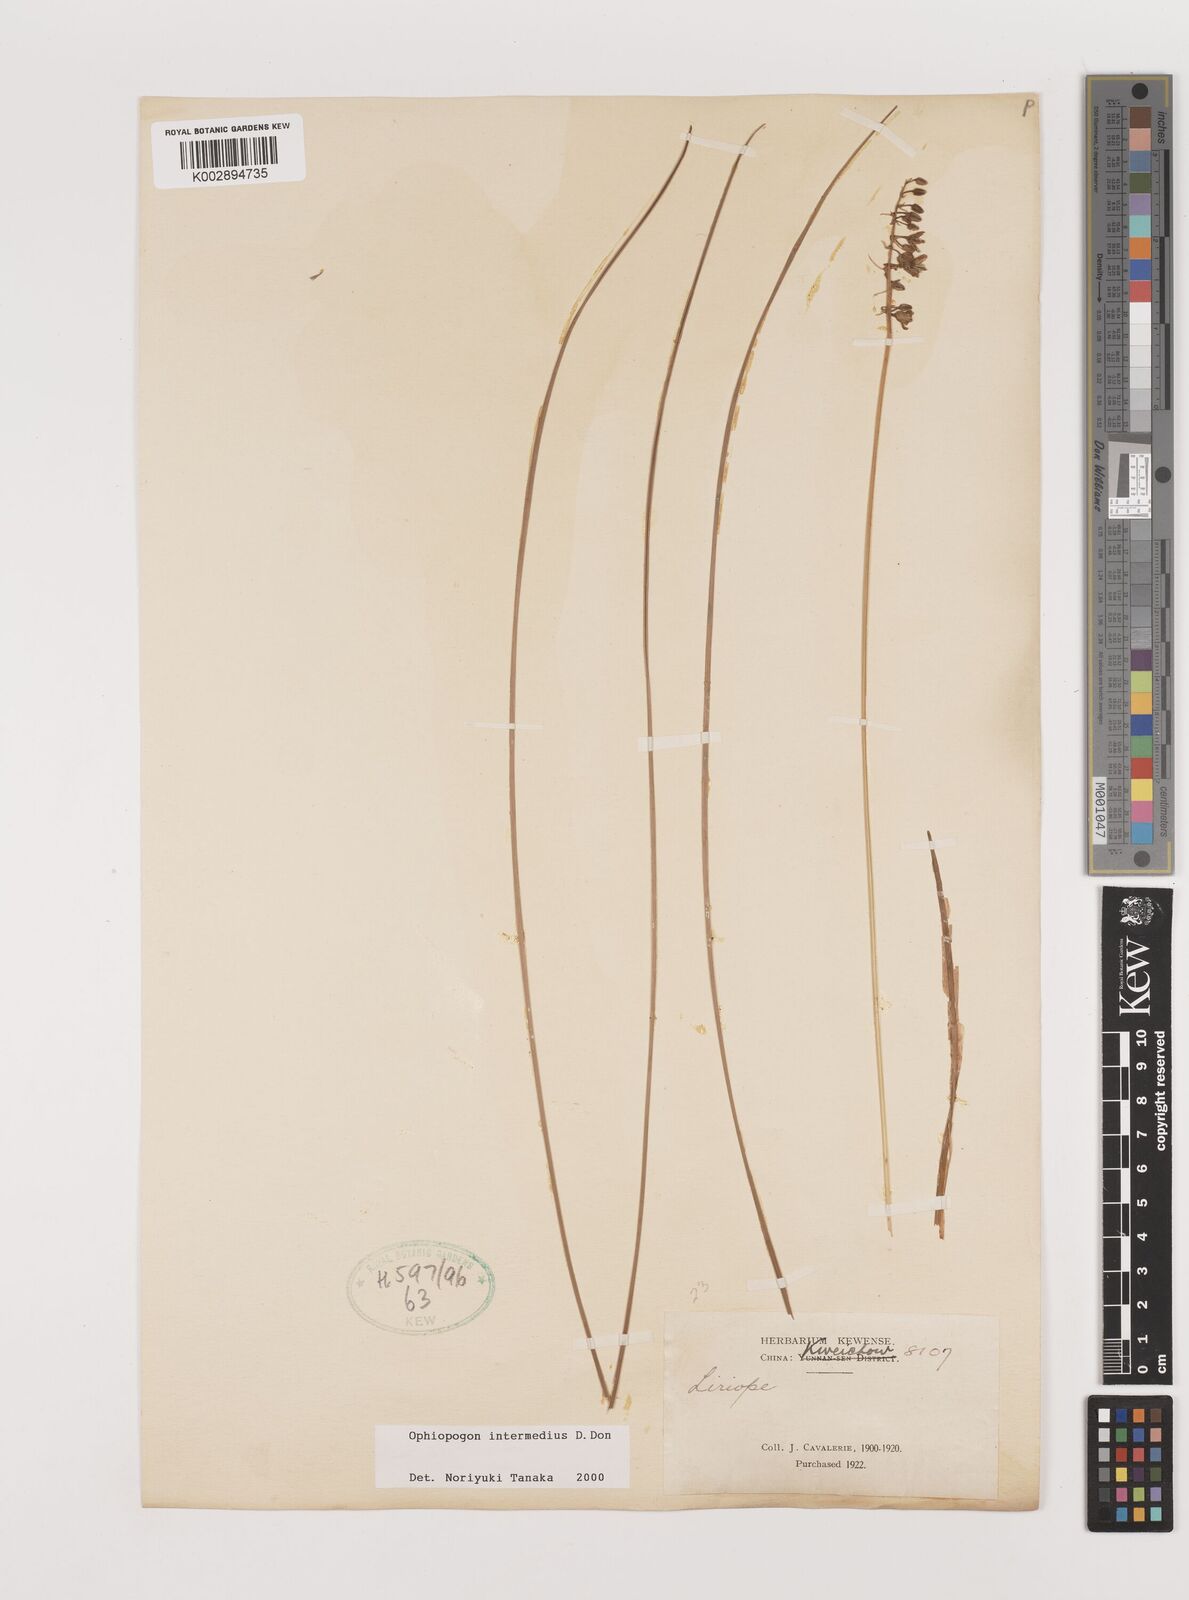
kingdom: Plantae
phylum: Tracheophyta
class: Liliopsida
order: Asparagales
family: Asparagaceae
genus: Ophiopogon
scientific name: Ophiopogon intermedius
